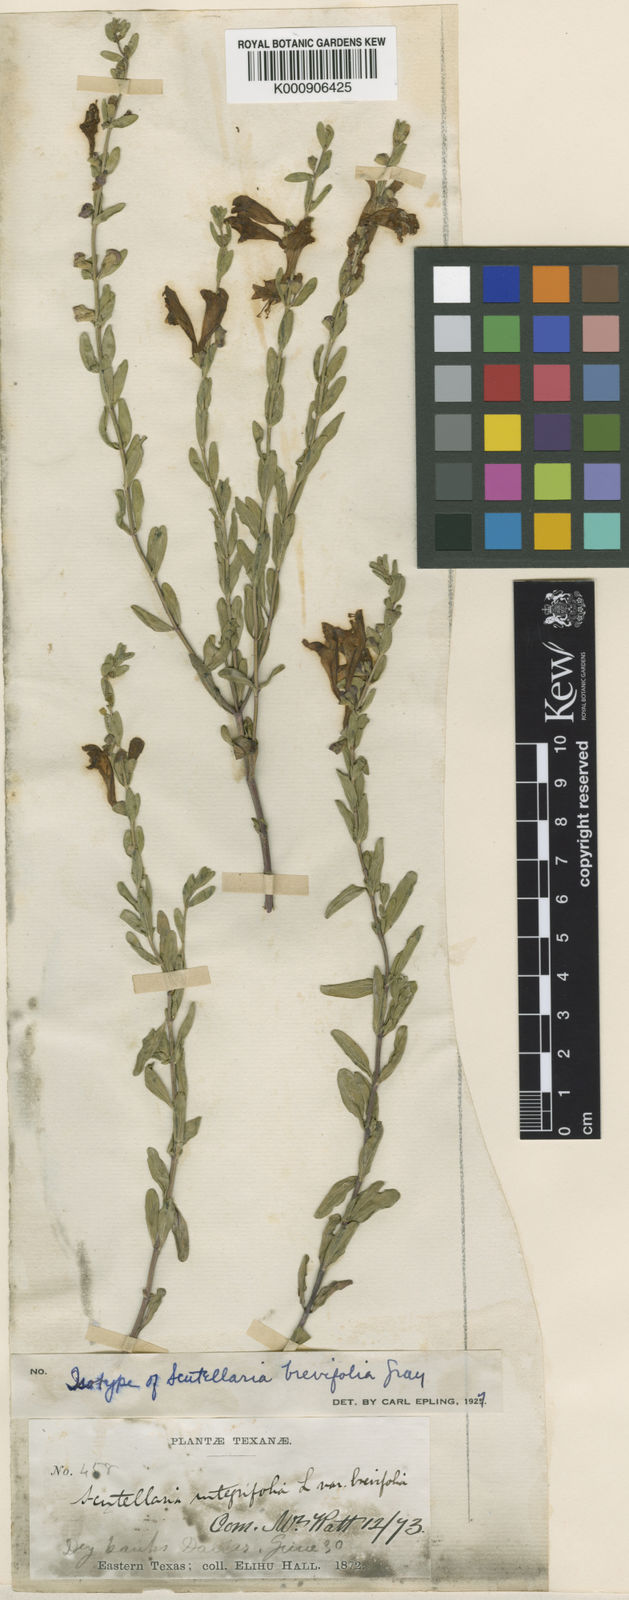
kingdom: Plantae
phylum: Tracheophyta
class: Magnoliopsida
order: Lamiales
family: Lamiaceae
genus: Scutellaria
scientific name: Scutellaria wrightii
